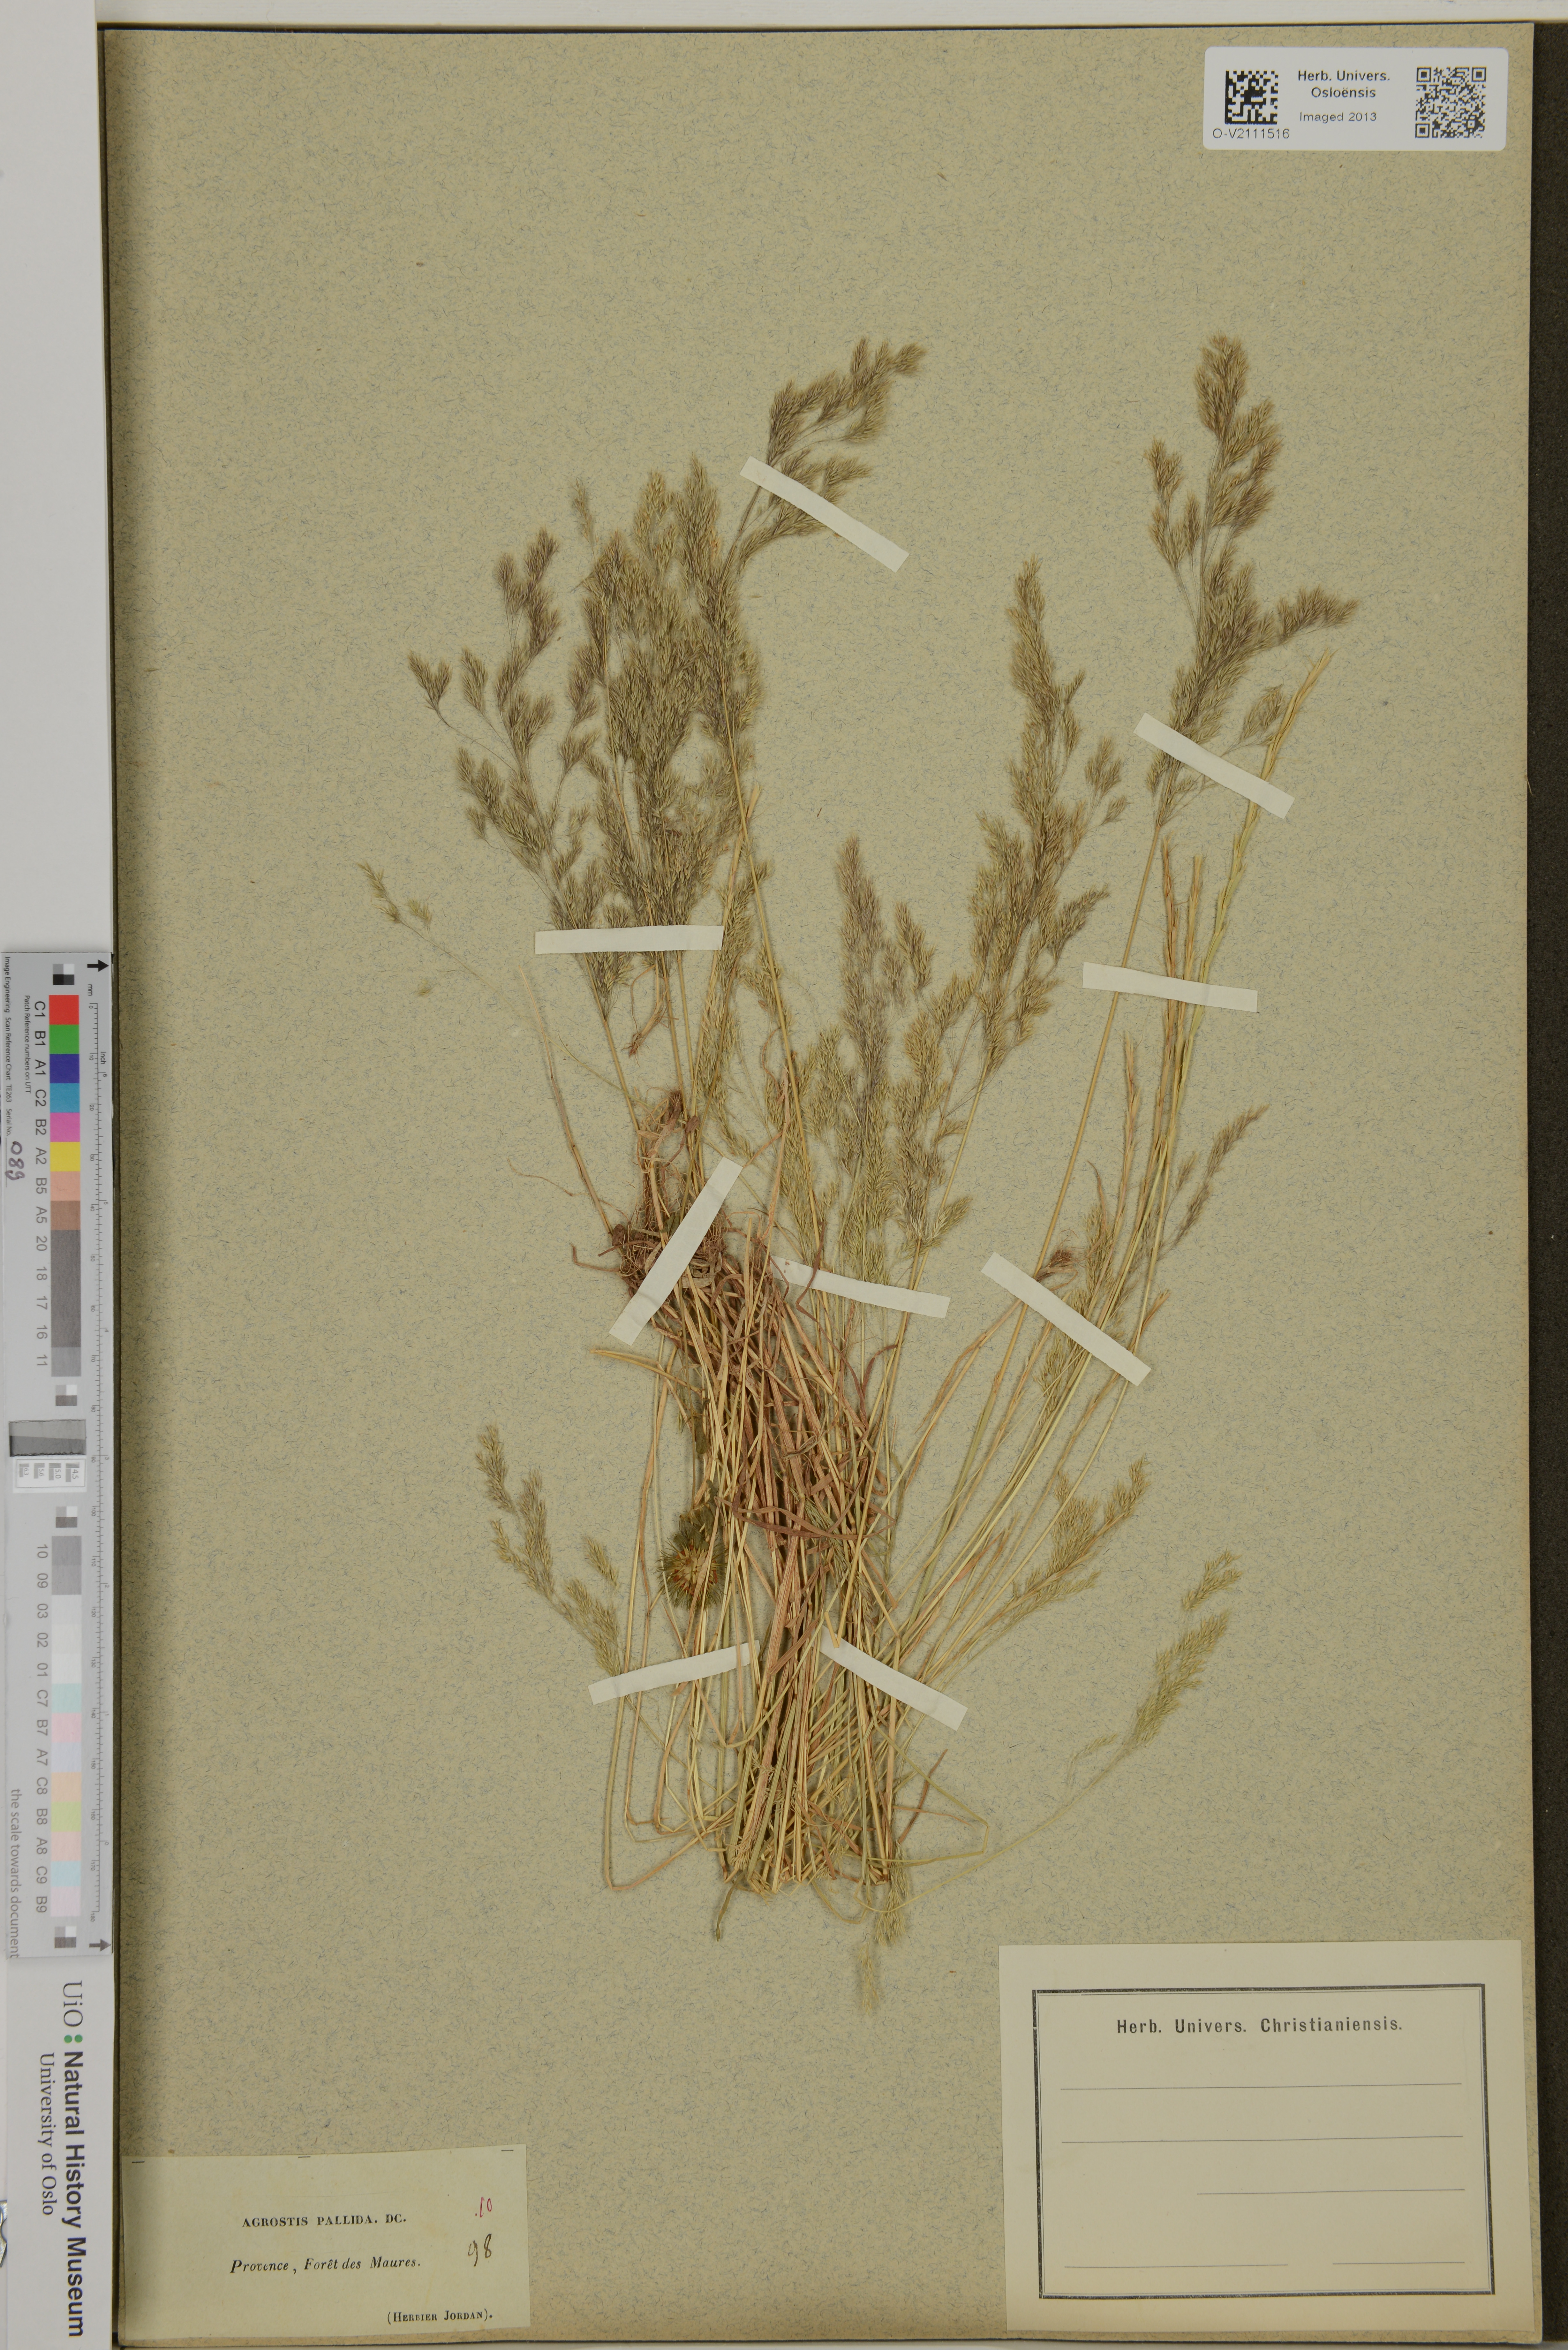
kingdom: Plantae
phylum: Tracheophyta
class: Liliopsida
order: Poales
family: Poaceae
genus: Agrostis
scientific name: Agrostis
